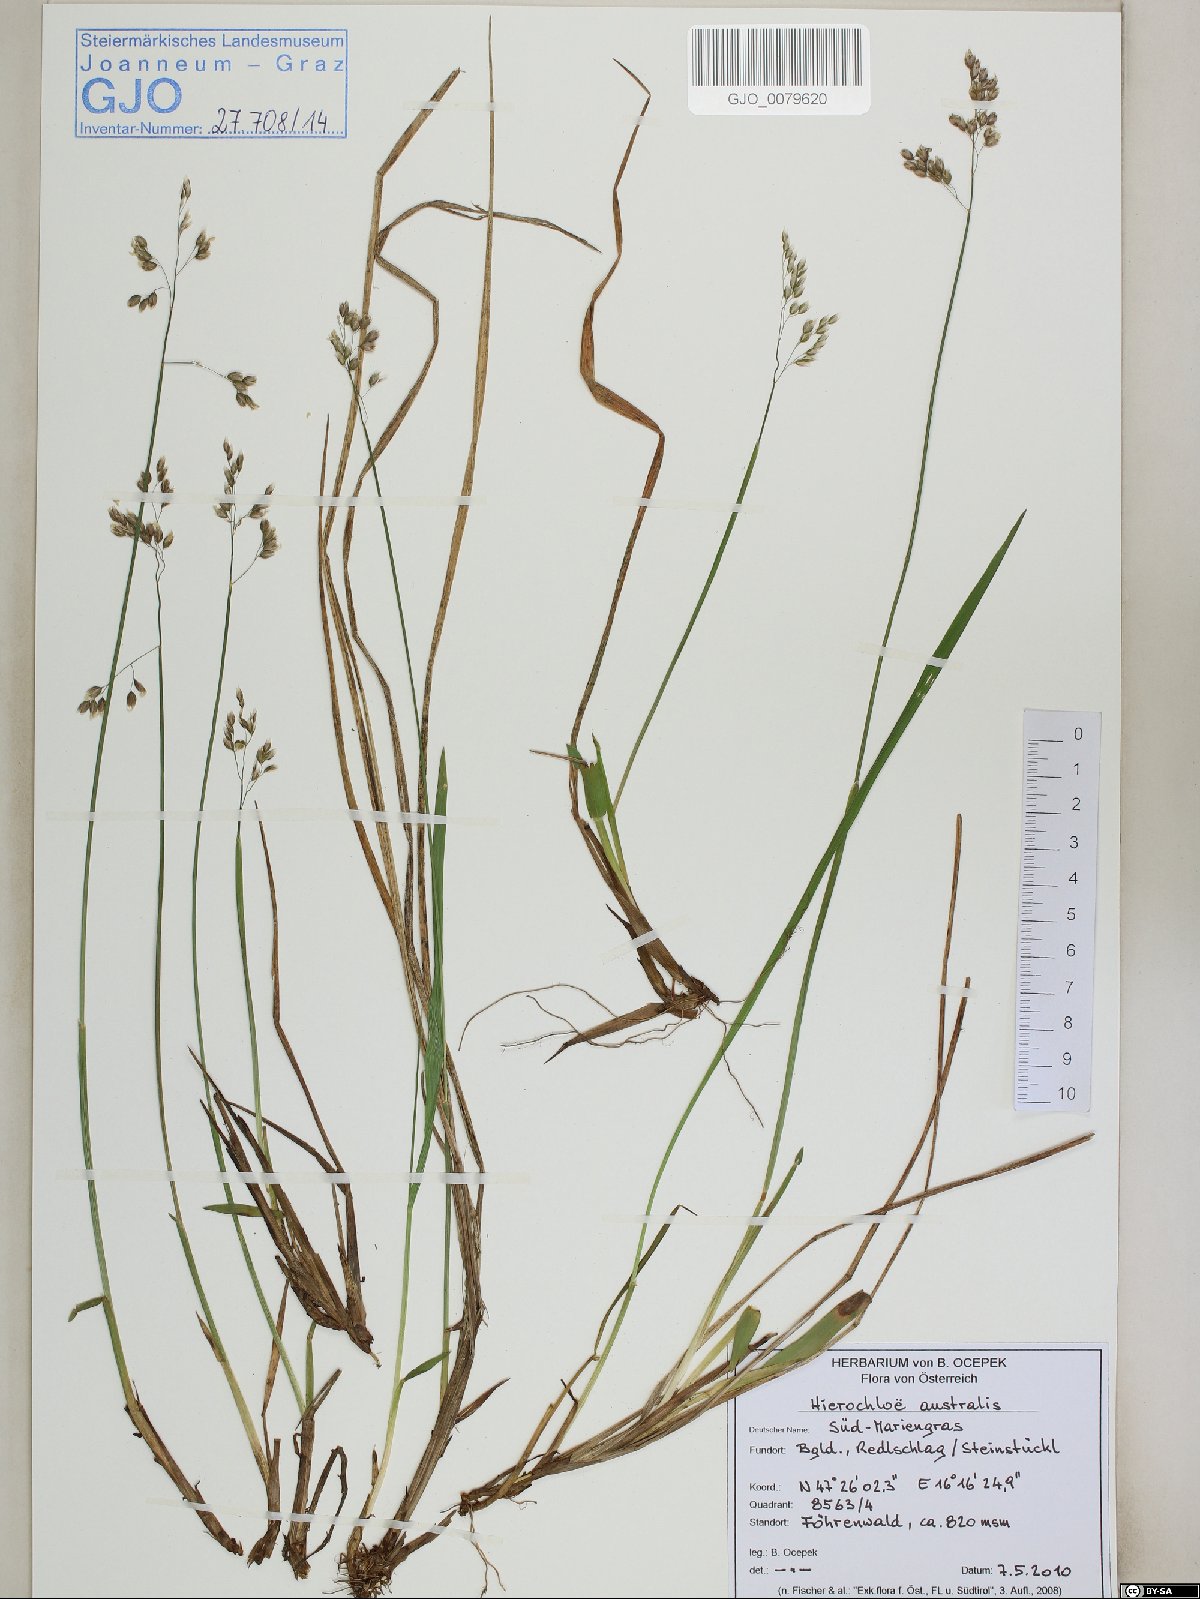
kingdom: Plantae
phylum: Tracheophyta
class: Liliopsida
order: Poales
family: Poaceae
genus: Anthoxanthum
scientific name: Anthoxanthum australe
